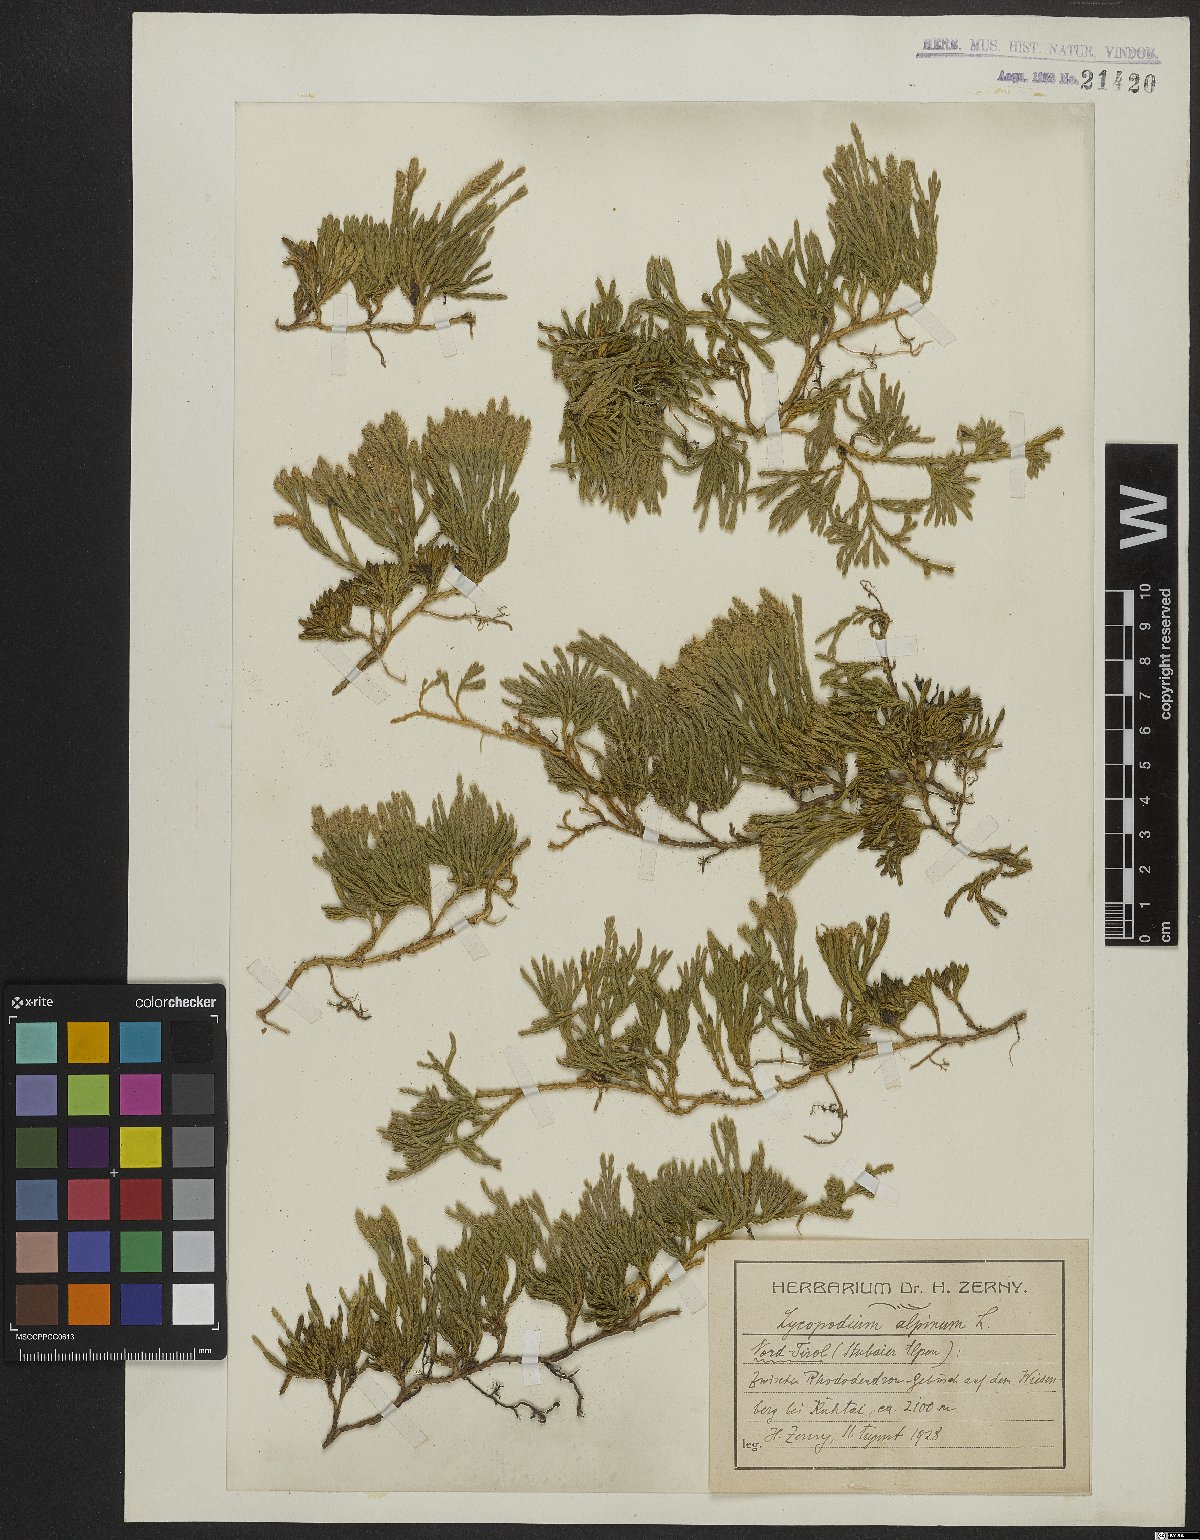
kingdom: Plantae
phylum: Tracheophyta
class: Lycopodiopsida
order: Lycopodiales
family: Lycopodiaceae
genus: Diphasiastrum
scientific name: Diphasiastrum alpinum
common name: Alpine clubmoss
